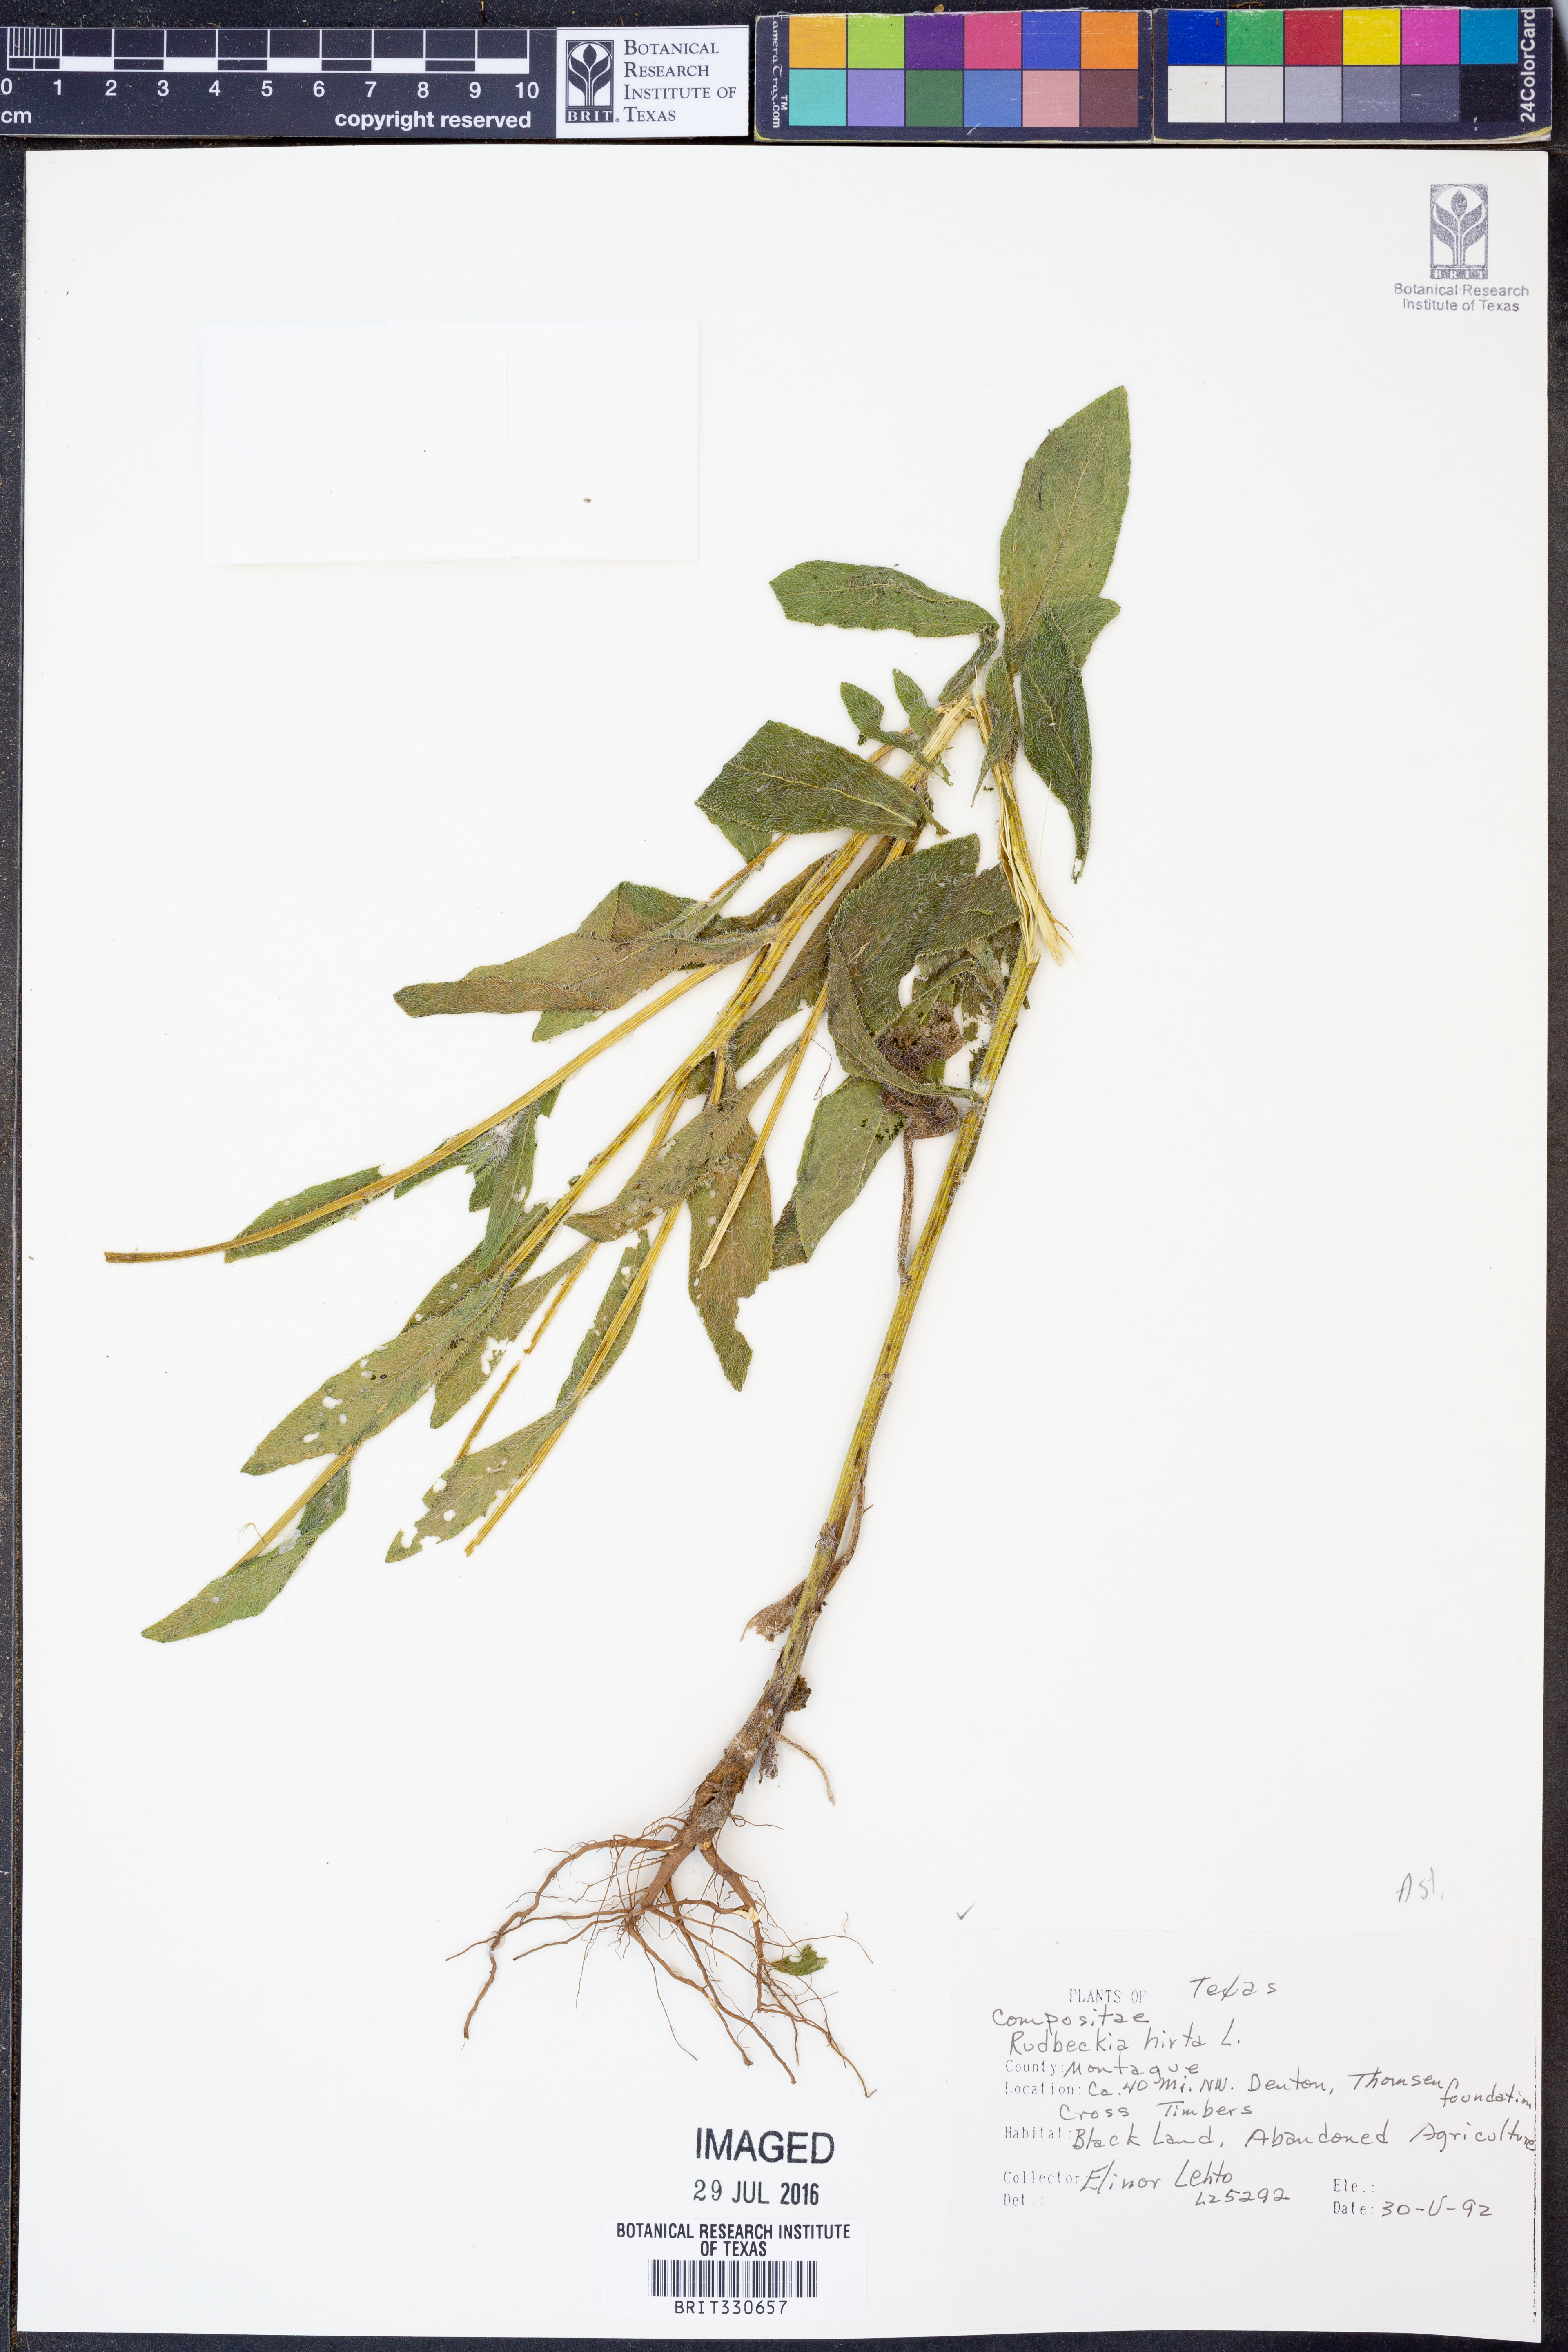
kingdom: Plantae
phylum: Tracheophyta
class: Magnoliopsida
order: Asterales
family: Asteraceae
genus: Rudbeckia
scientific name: Rudbeckia hirta
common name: Black-eyed-susan
